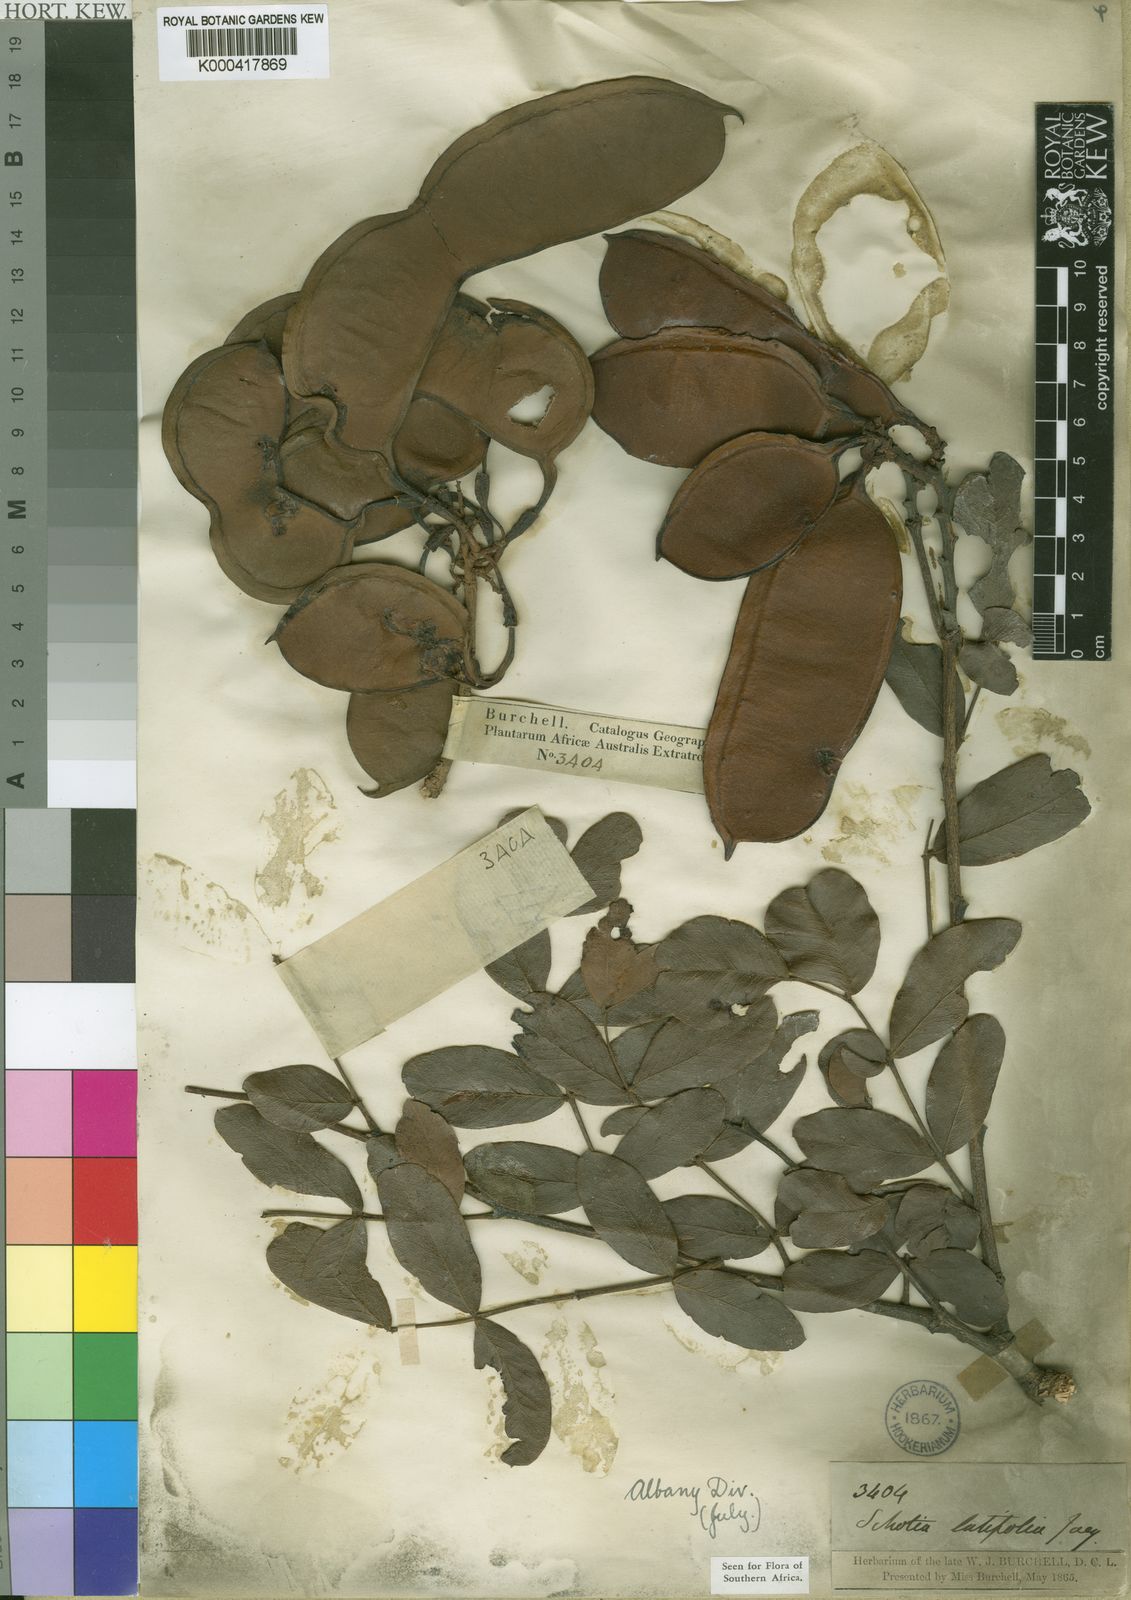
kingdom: Plantae
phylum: Tracheophyta
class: Magnoliopsida
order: Fabales
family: Fabaceae
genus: Schotia
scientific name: Schotia latifolia
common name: Bush boer-bean
